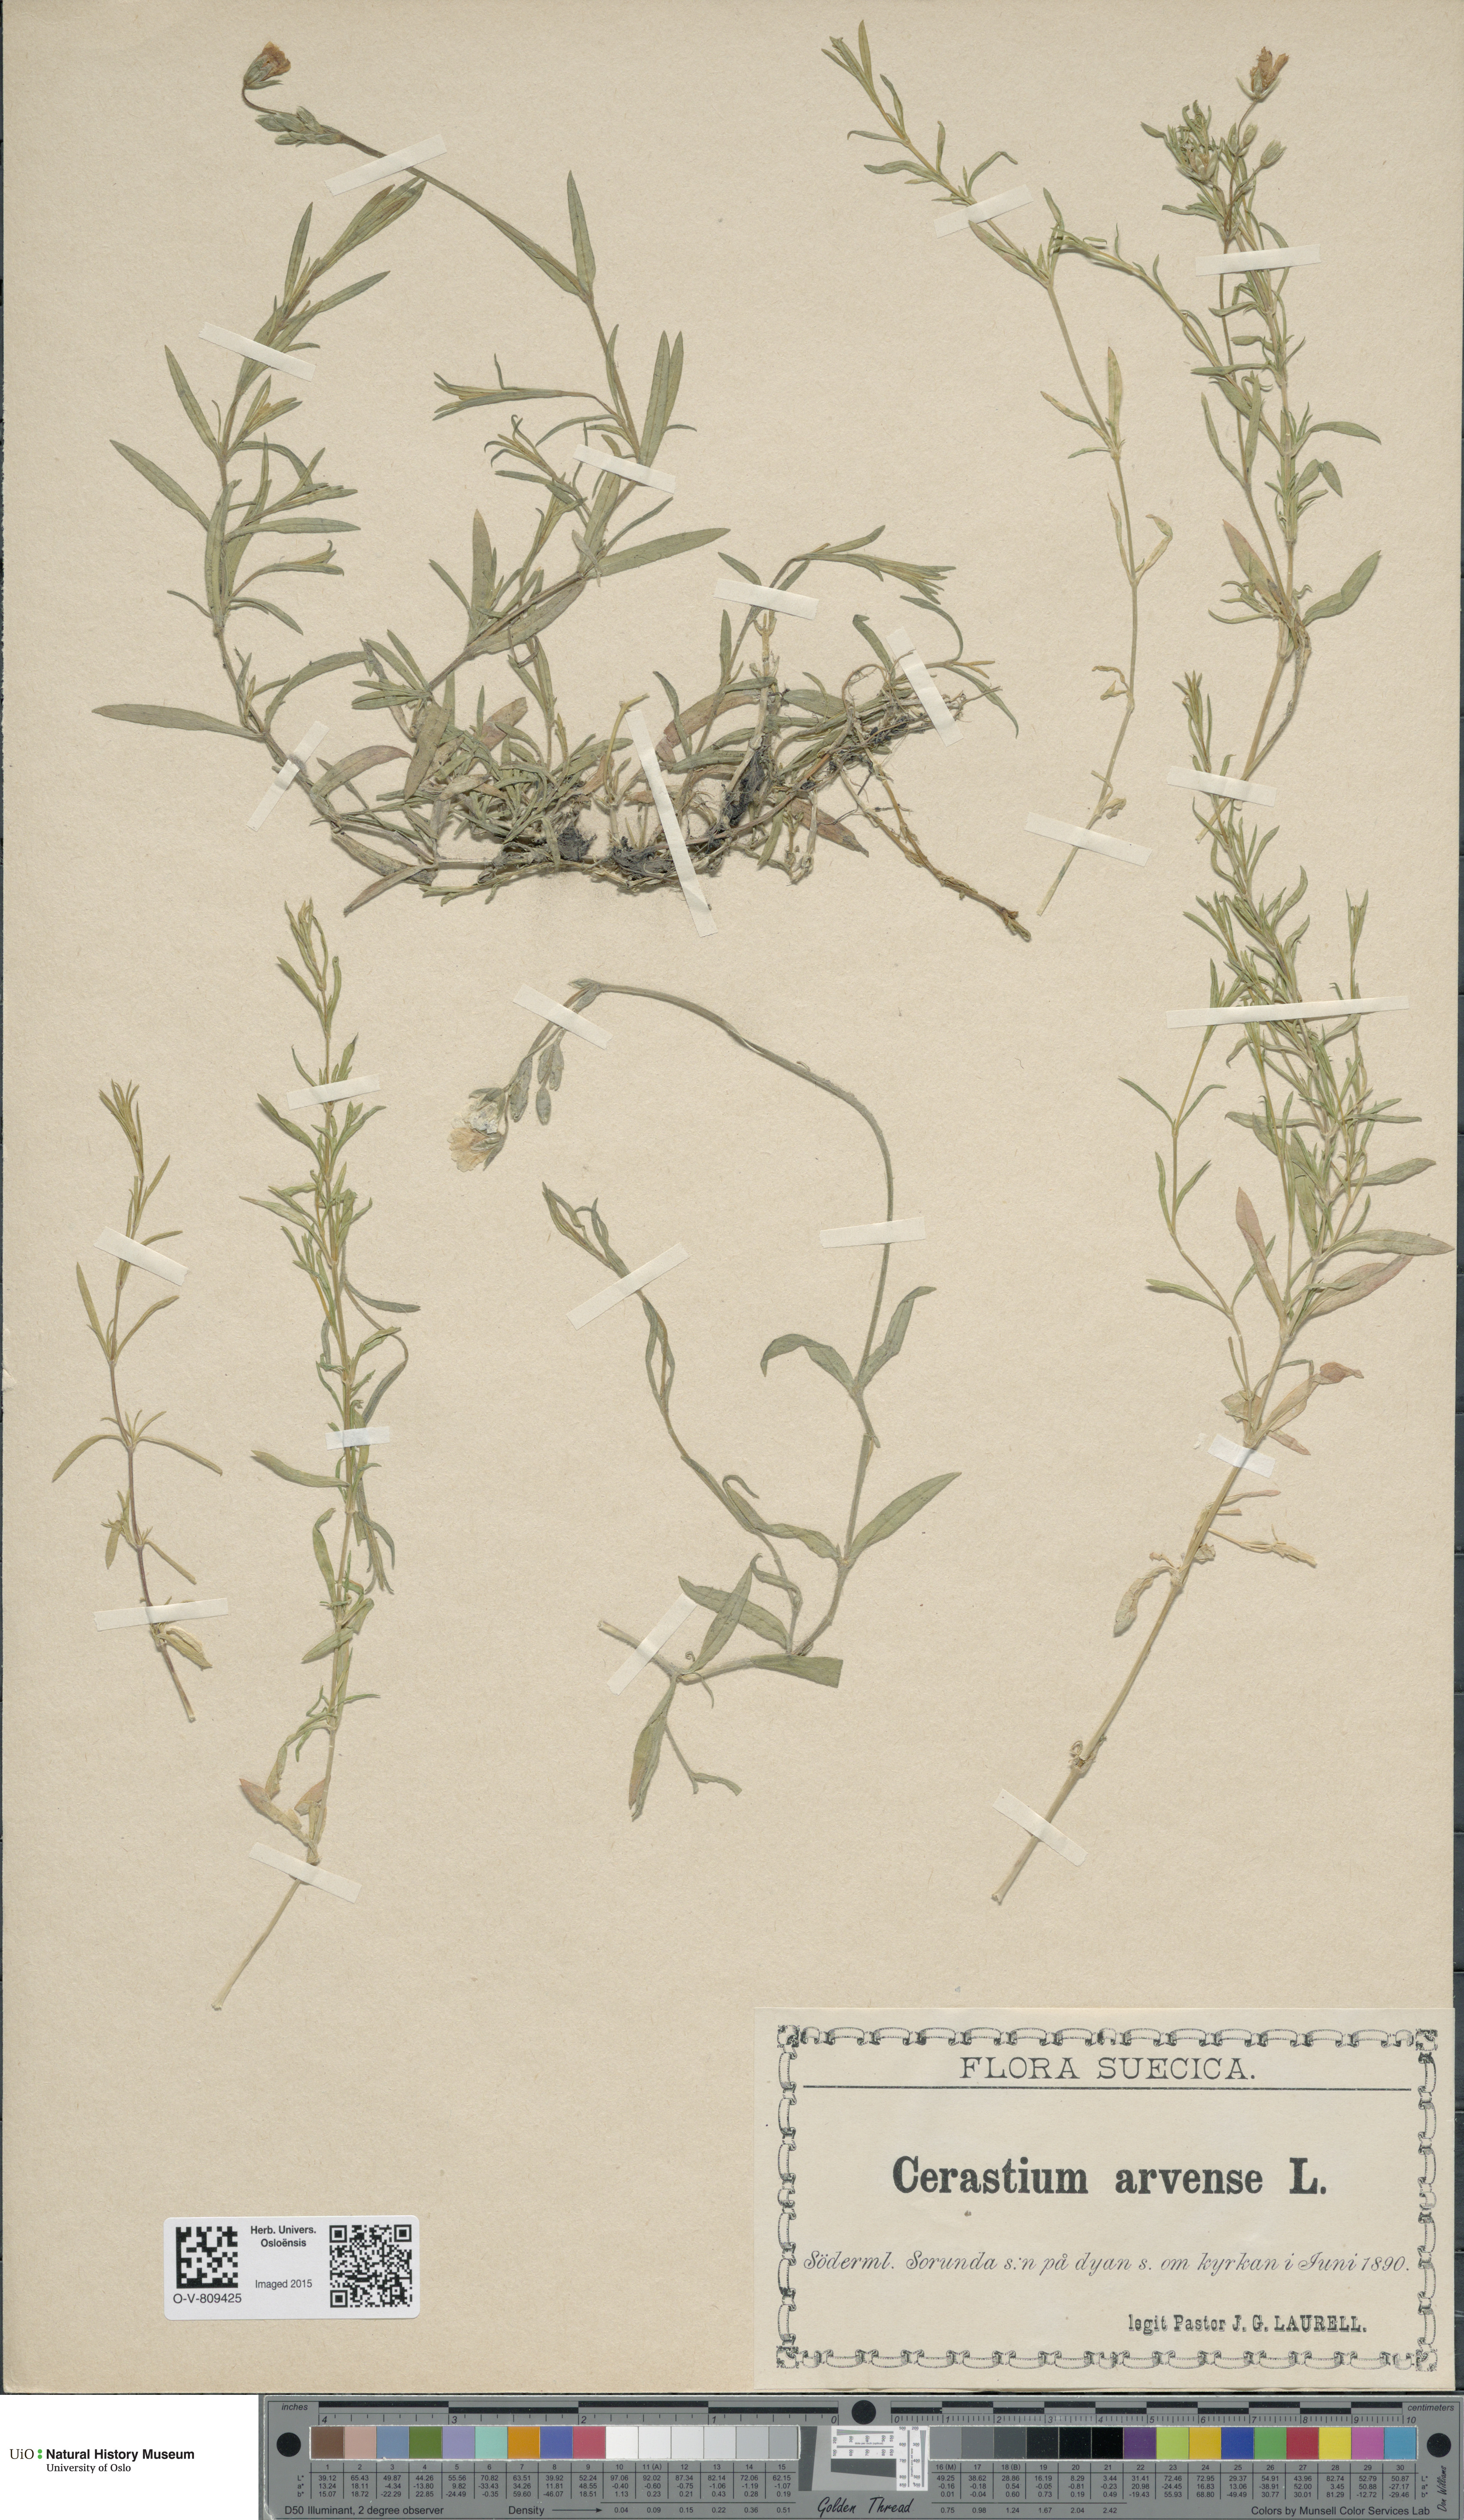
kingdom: Plantae
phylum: Tracheophyta
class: Magnoliopsida
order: Caryophyllales
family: Caryophyllaceae
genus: Cerastium
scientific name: Cerastium arvense
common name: Field mouse-ear
